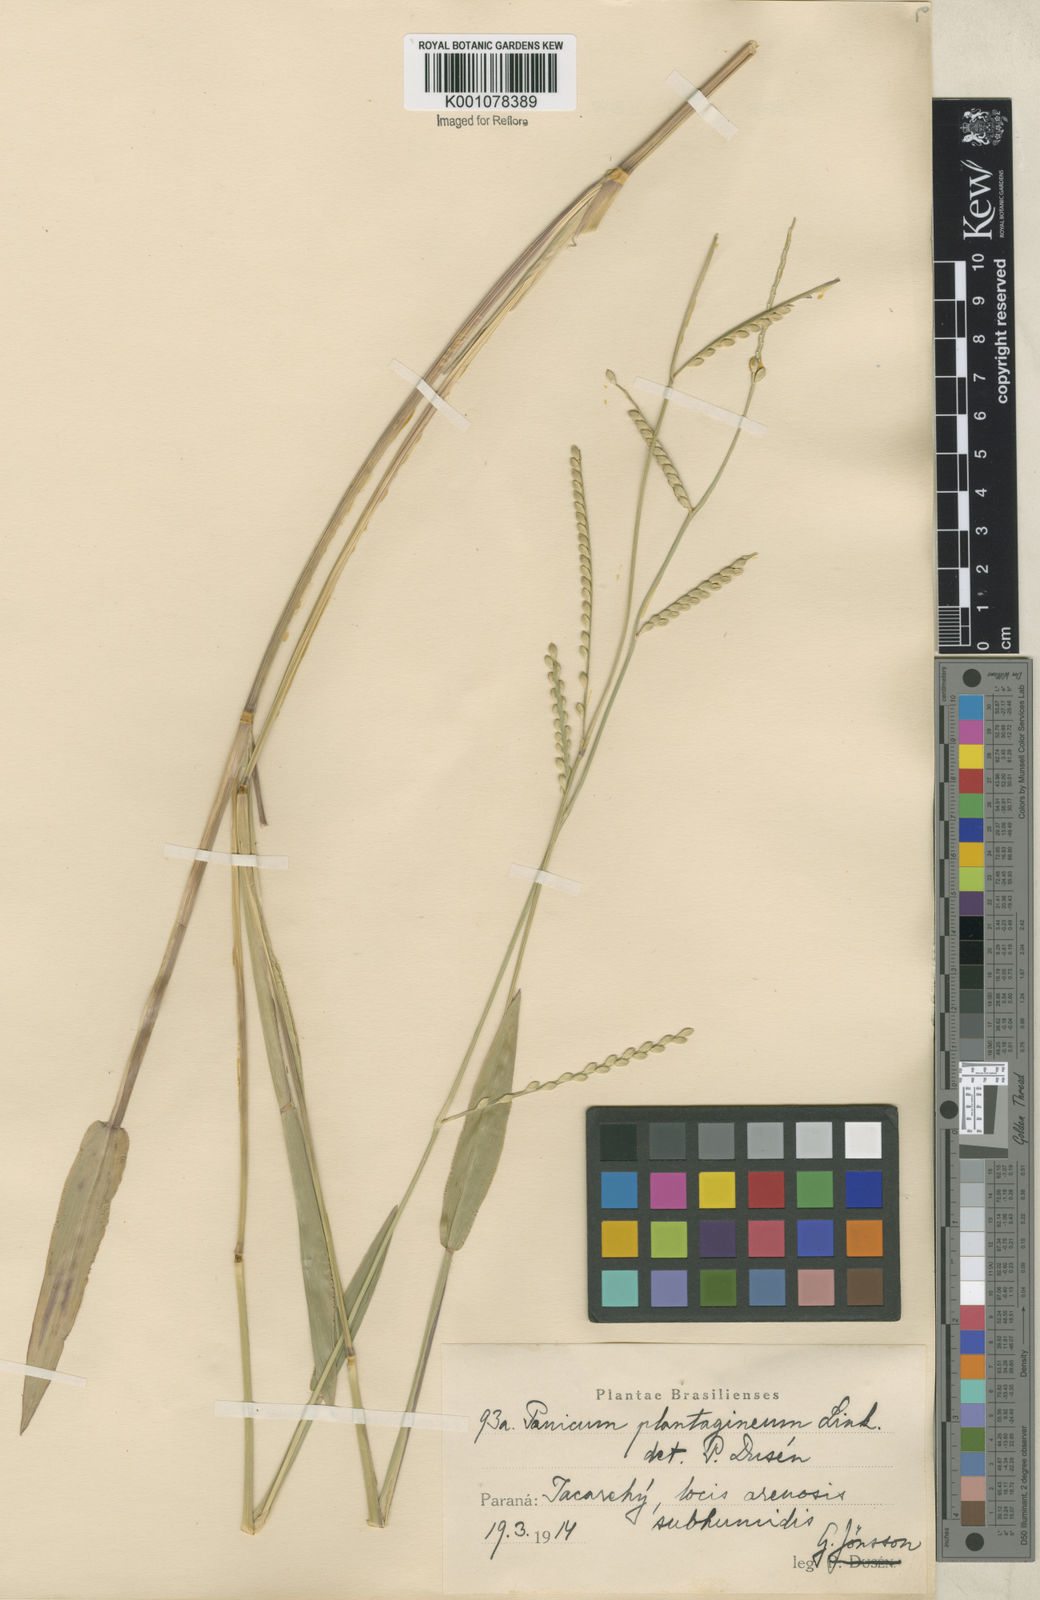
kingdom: Plantae
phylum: Tracheophyta
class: Liliopsida
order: Poales
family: Poaceae
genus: Urochloa
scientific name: Urochloa plantaginea
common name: Plantain signalgrass
